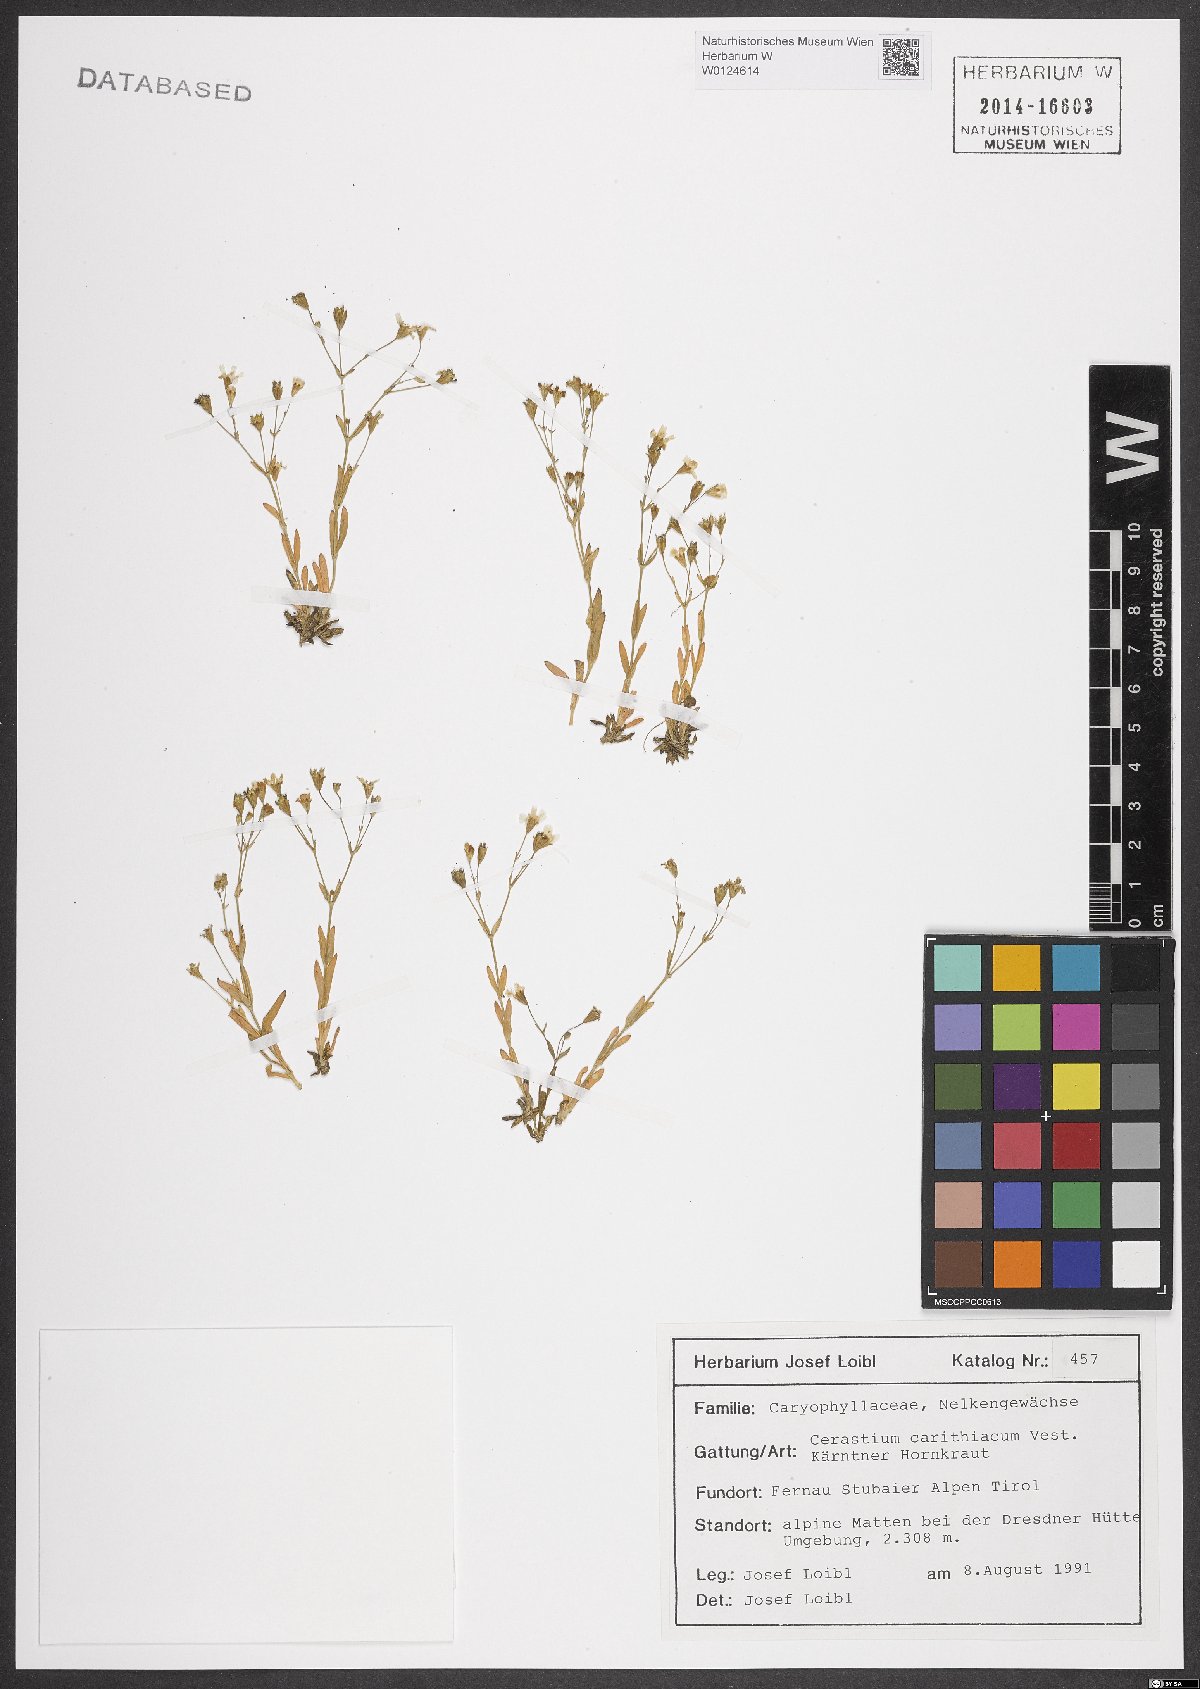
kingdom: Plantae
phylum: Tracheophyta
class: Magnoliopsida
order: Caryophyllales
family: Caryophyllaceae
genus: Cerastium
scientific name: Cerastium carinthiacum
